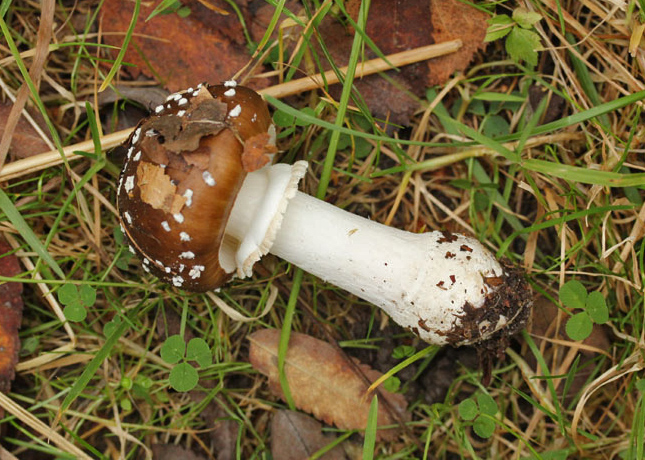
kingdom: Fungi
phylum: Basidiomycota
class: Agaricomycetes
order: Agaricales
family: Amanitaceae
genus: Amanita
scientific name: Amanita pantherina
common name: panter-fluesvamp
